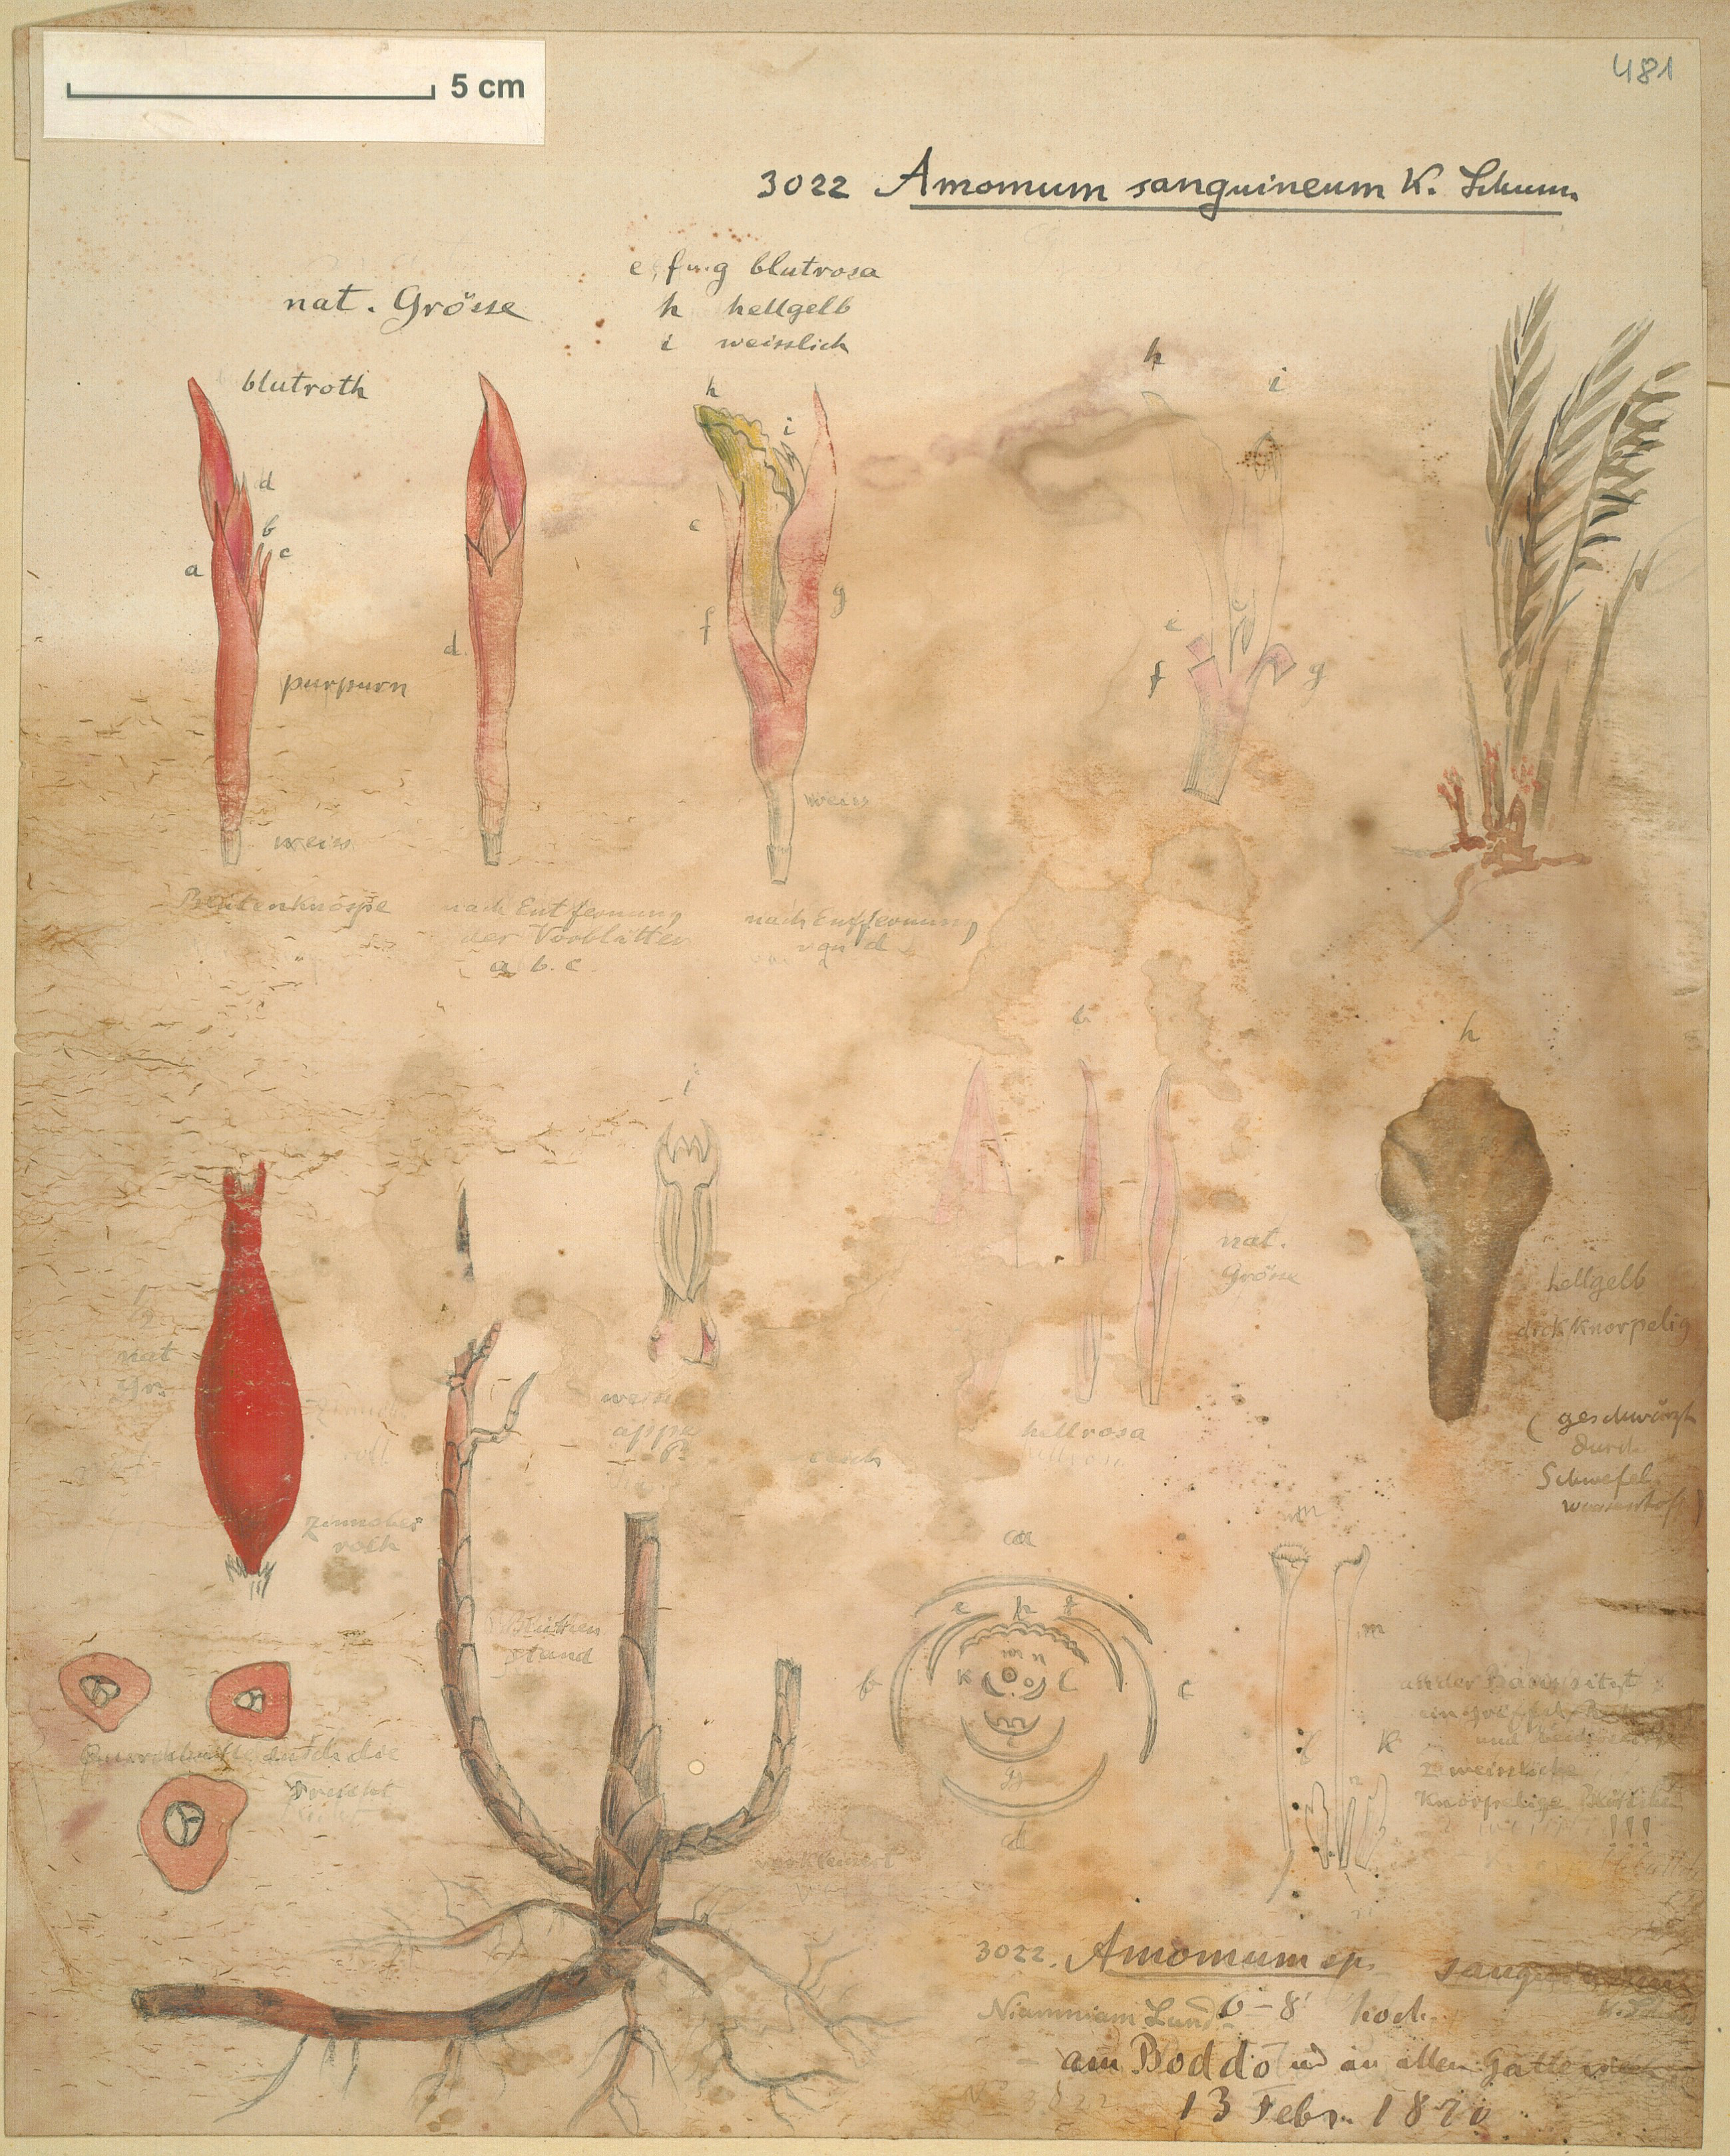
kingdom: Plantae
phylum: Tracheophyta
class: Liliopsida
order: Zingiberales
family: Zingiberaceae
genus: Aframomum
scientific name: Aframomum angustifolium
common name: Guinea grains
